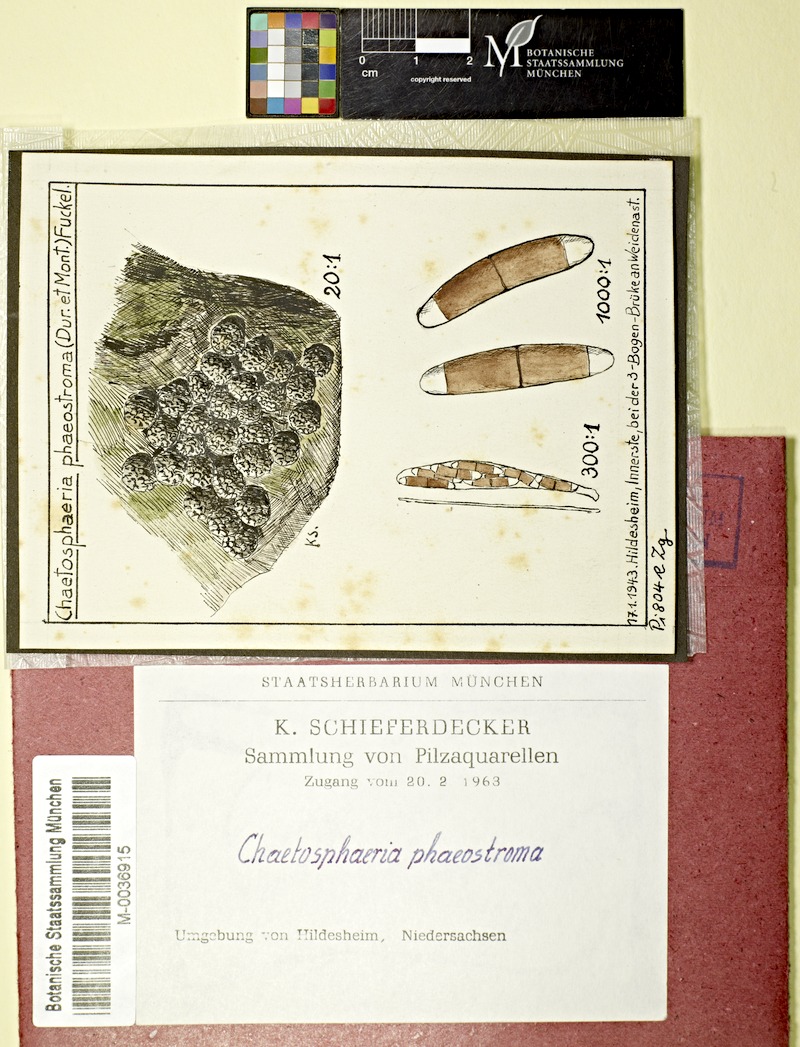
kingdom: Fungi
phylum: Ascomycota
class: Sordariomycetes
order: Coronophorales
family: Chaetosphaerellaceae
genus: Chaetosphaerella
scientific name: Chaetosphaerella phaeostroma
